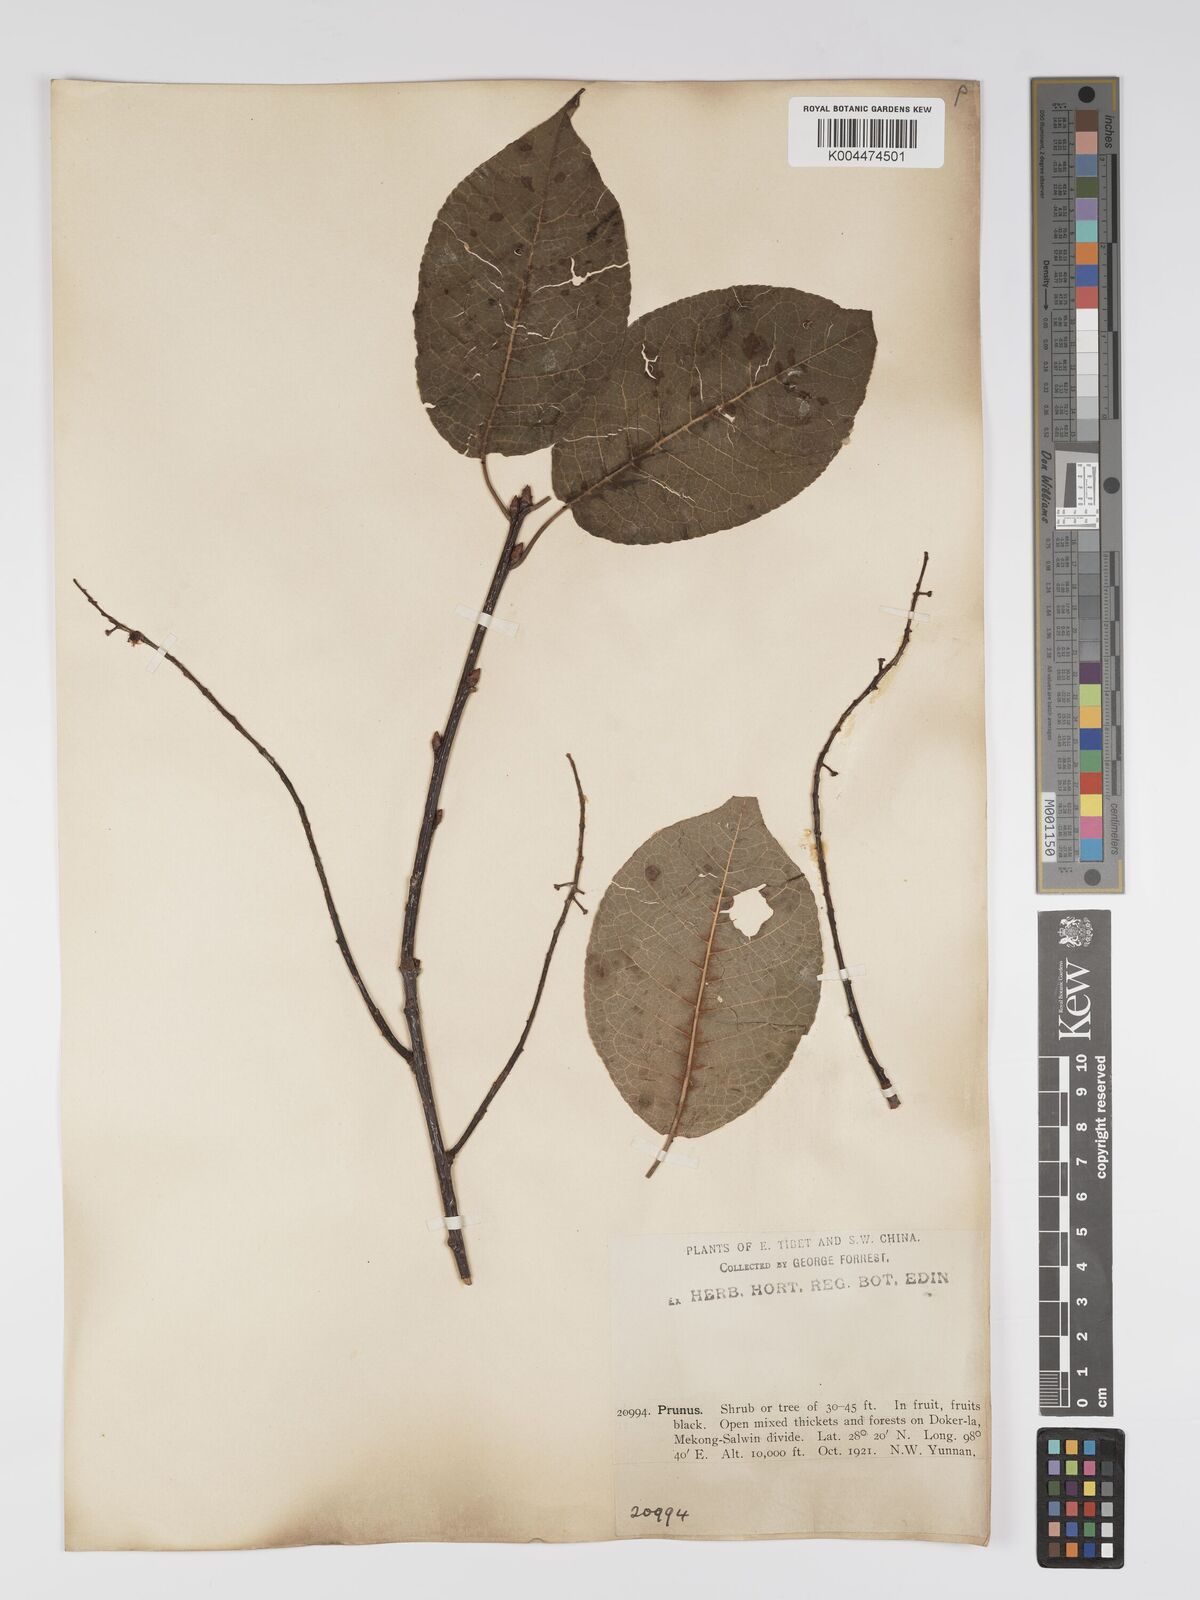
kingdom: Plantae
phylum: Tracheophyta
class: Magnoliopsida
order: Rosales
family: Rosaceae
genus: Prunus
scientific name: Prunus
